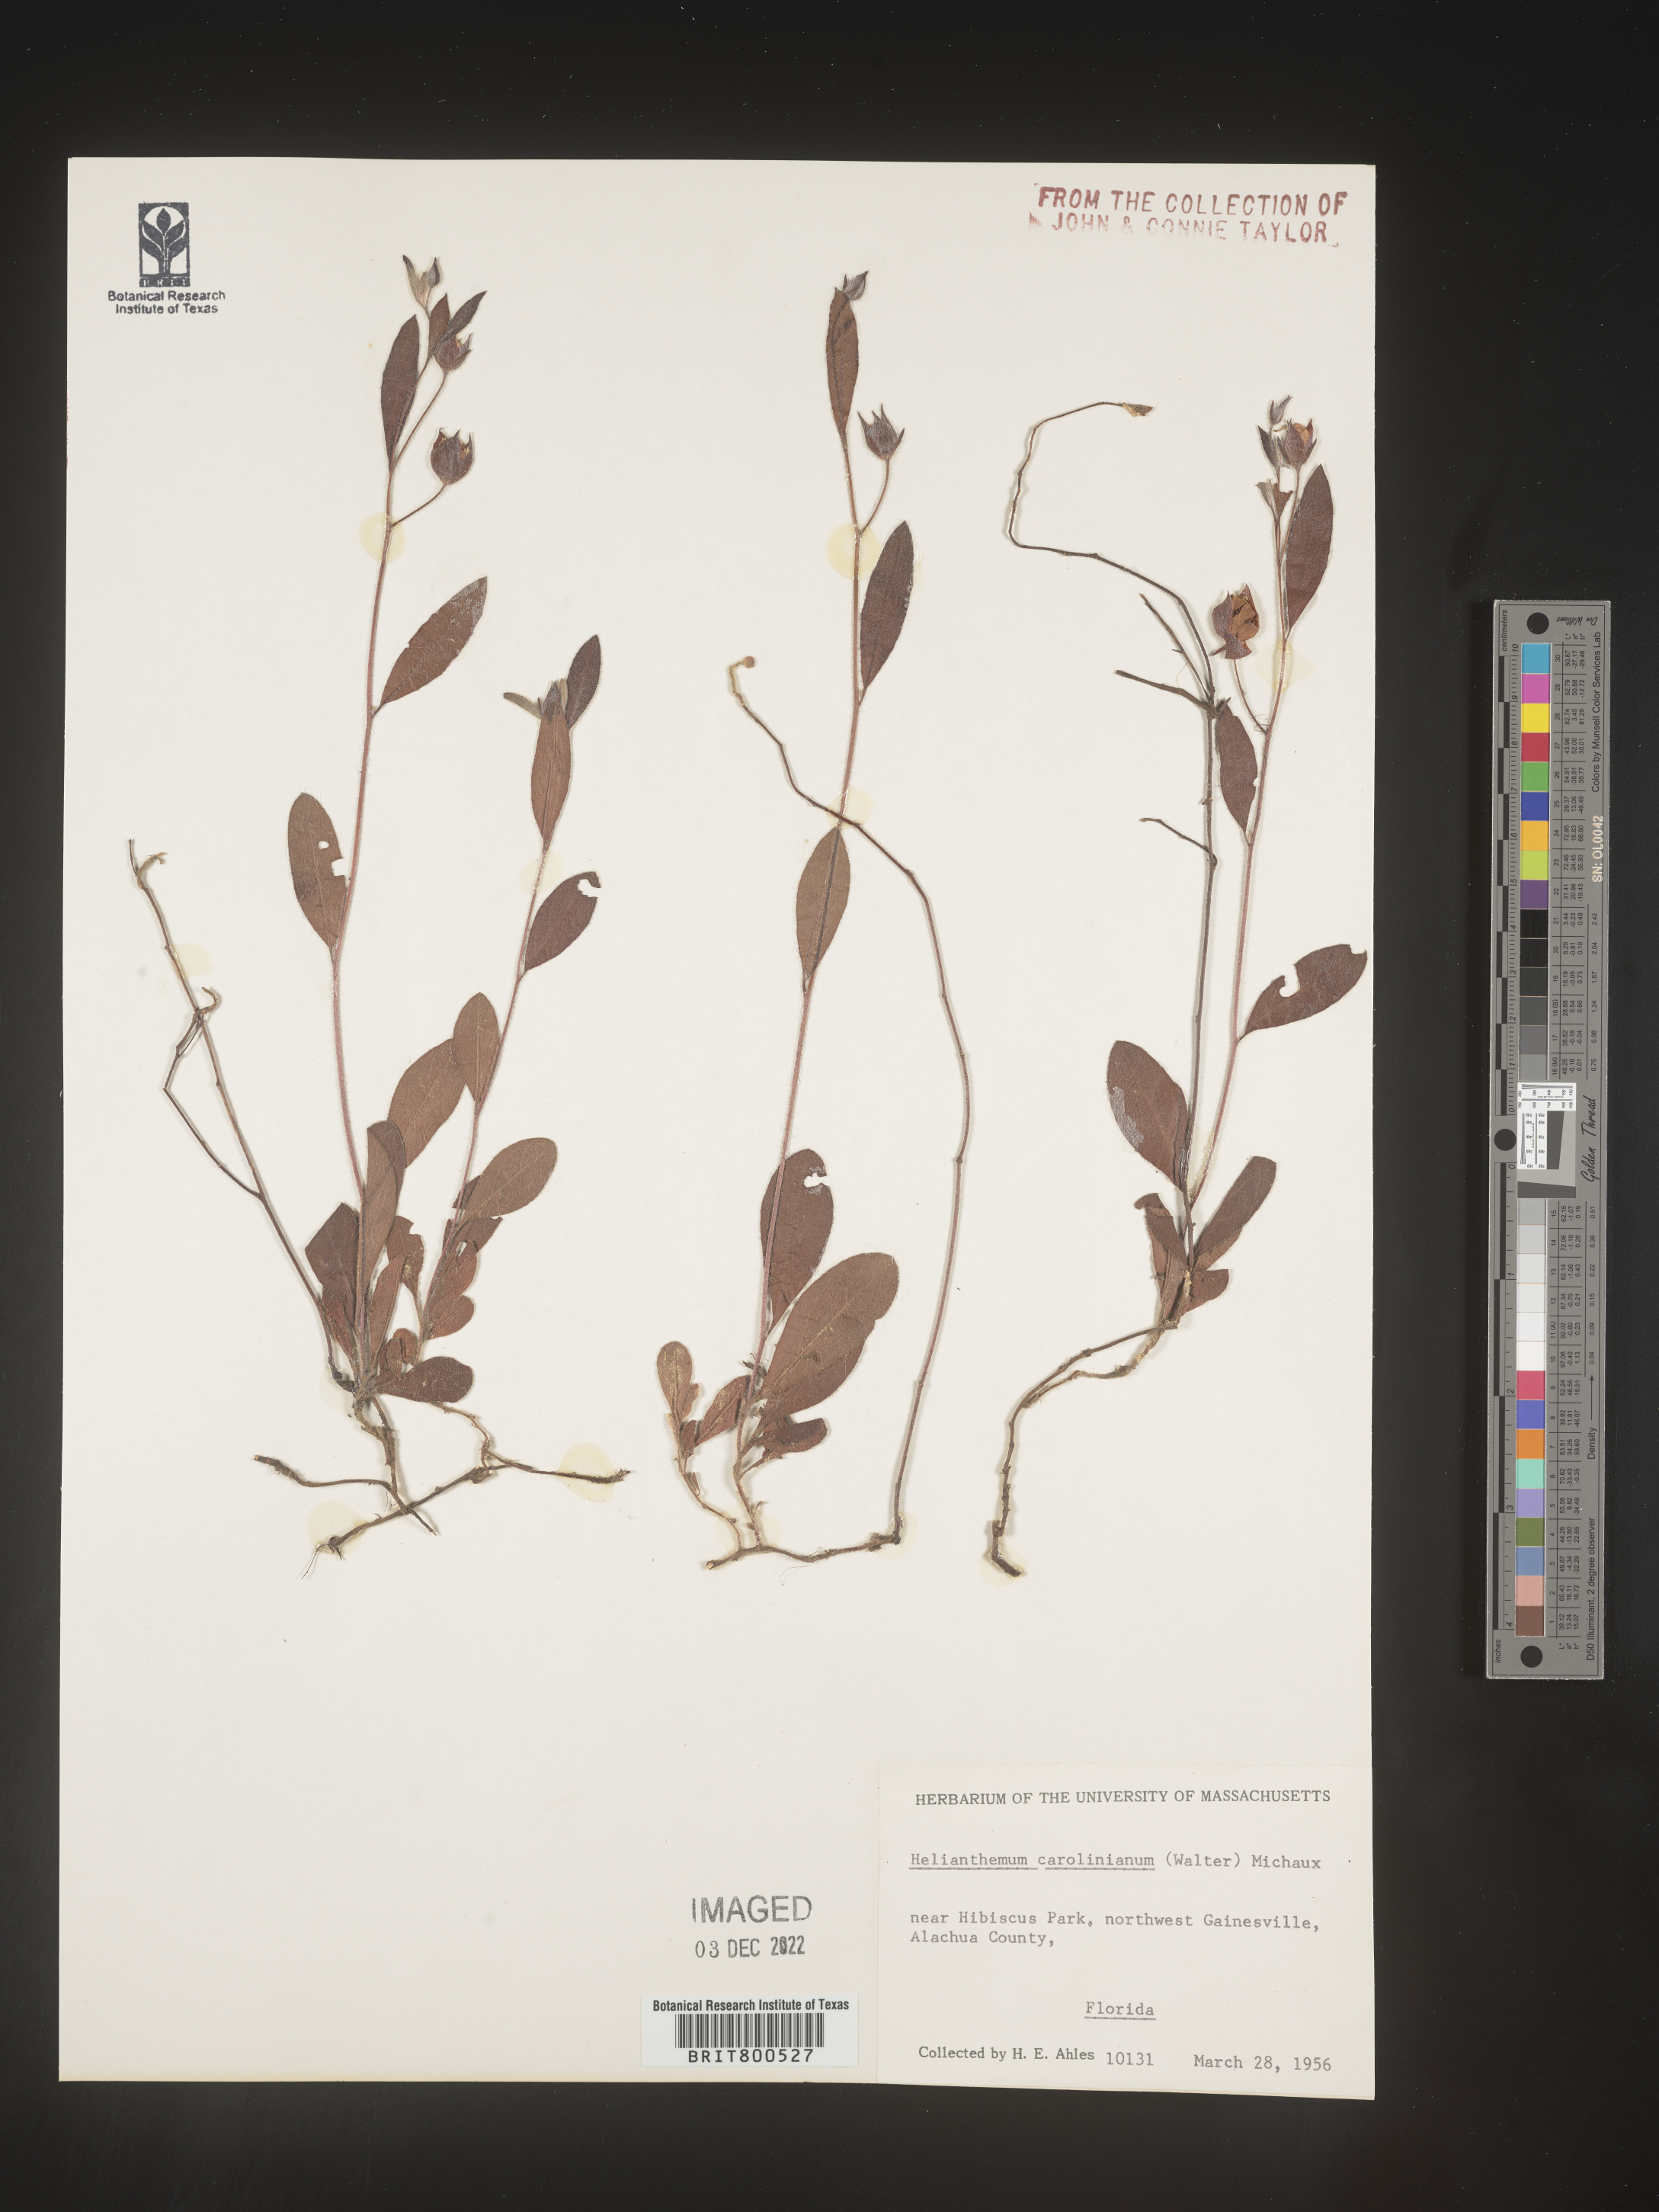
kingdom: Plantae
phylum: Tracheophyta
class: Magnoliopsida
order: Malvales
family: Cistaceae
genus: Crocanthemum
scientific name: Crocanthemum carolinianum
